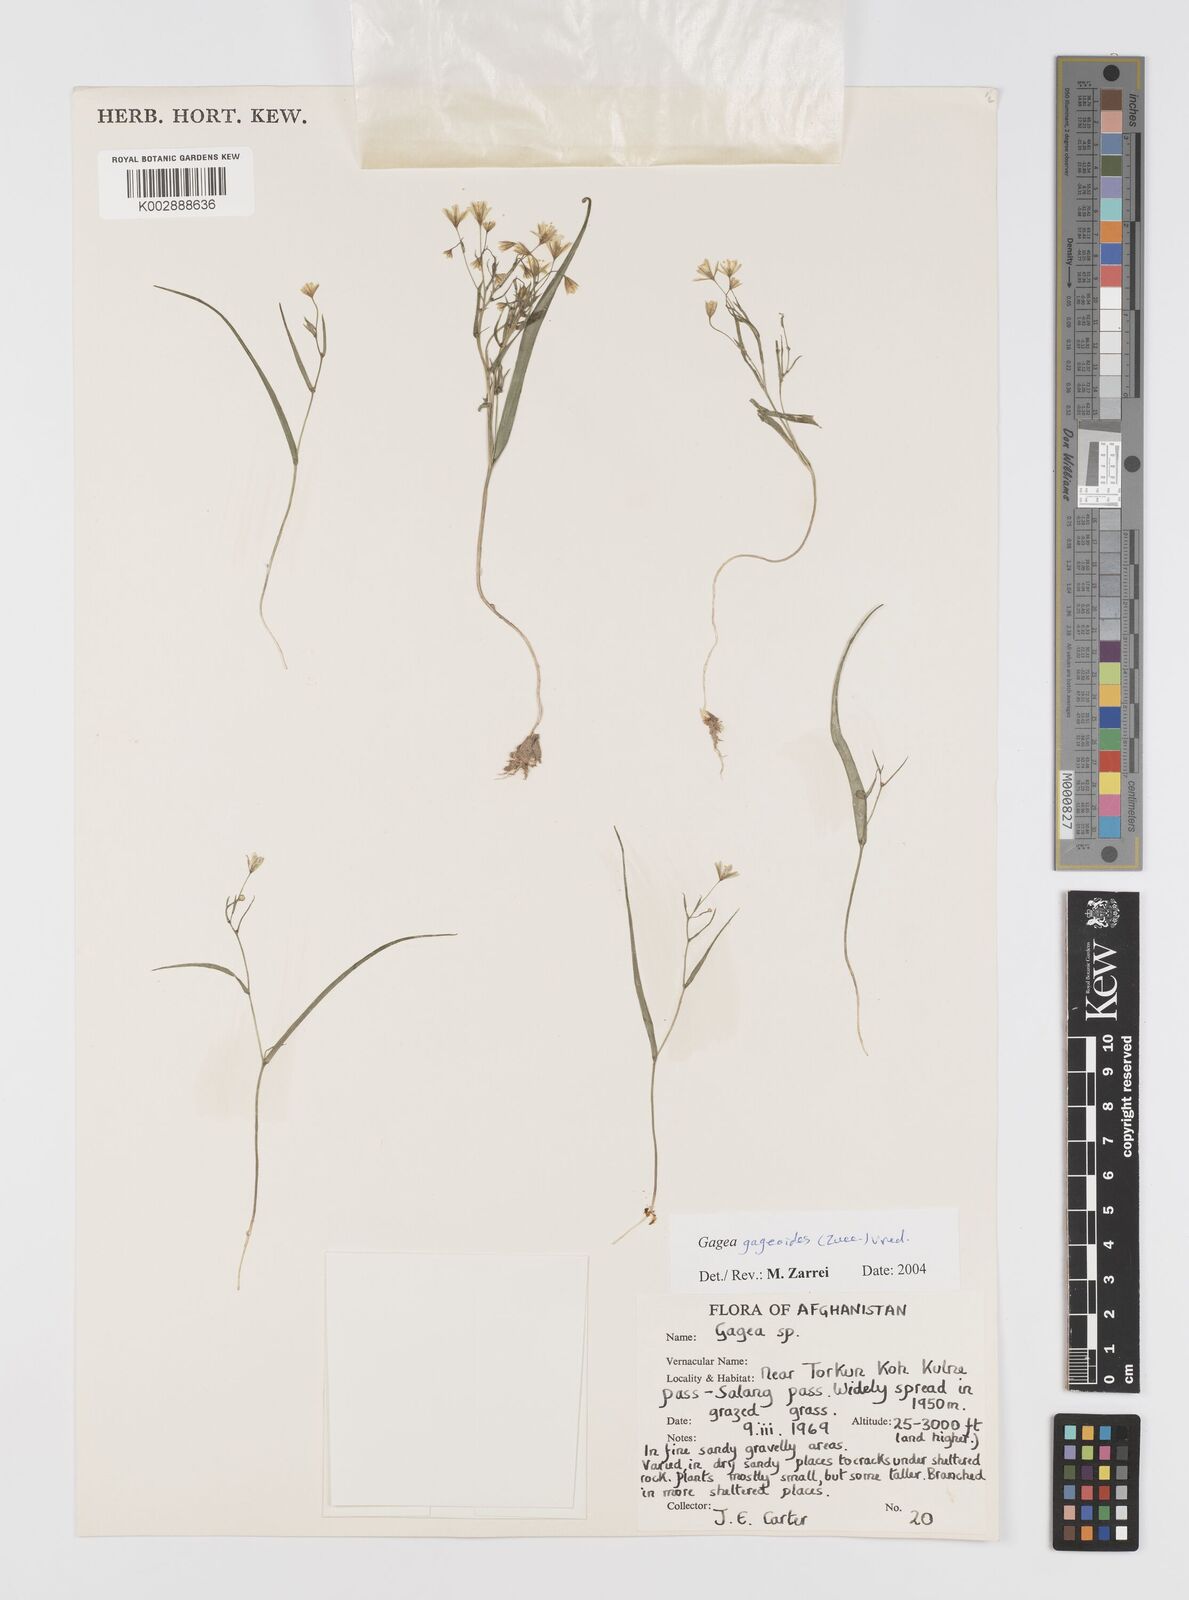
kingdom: Plantae
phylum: Tracheophyta
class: Liliopsida
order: Liliales
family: Liliaceae
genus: Gagea
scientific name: Gagea gageoides
